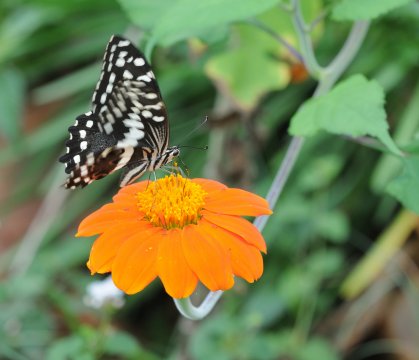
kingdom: Animalia
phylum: Arthropoda
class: Insecta
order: Lepidoptera
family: Papilionidae
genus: Papilio
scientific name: Papilio demodocus
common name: Citrus Swallowtail
